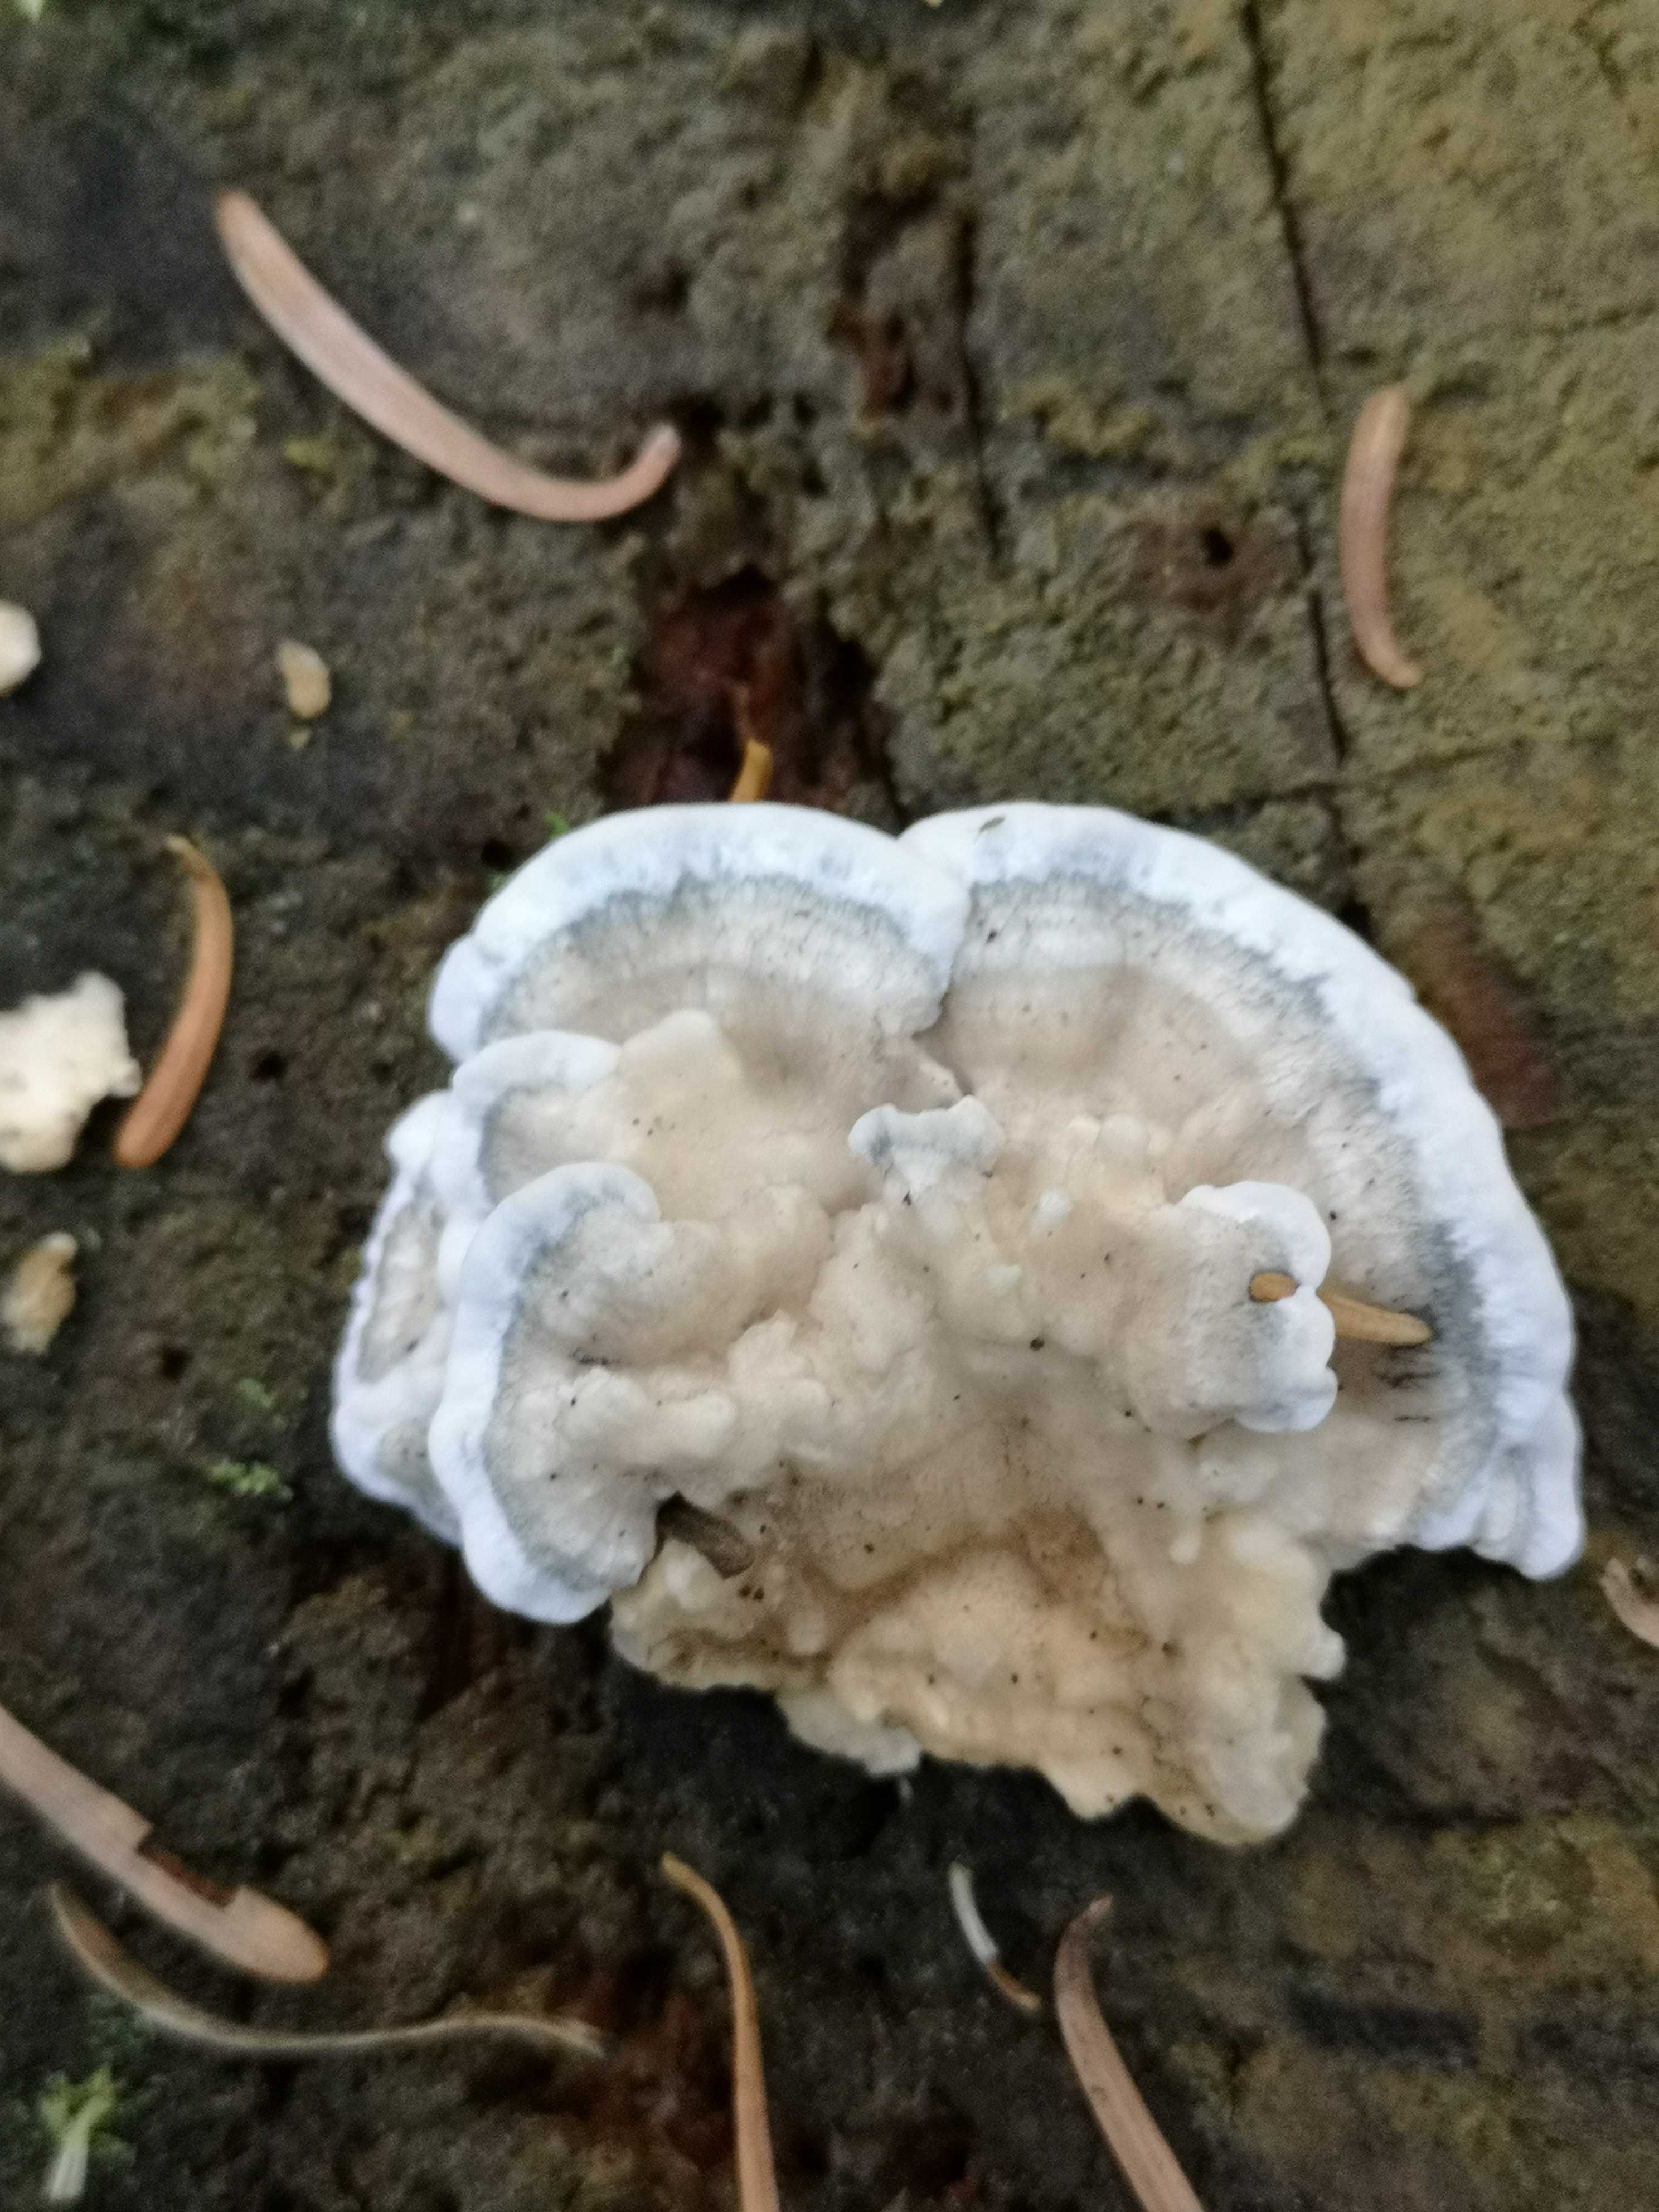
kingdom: Fungi
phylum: Basidiomycota
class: Agaricomycetes
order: Polyporales
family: Polyporaceae
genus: Cyanosporus
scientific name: Cyanosporus caesius
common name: blålig kødporesvamp
